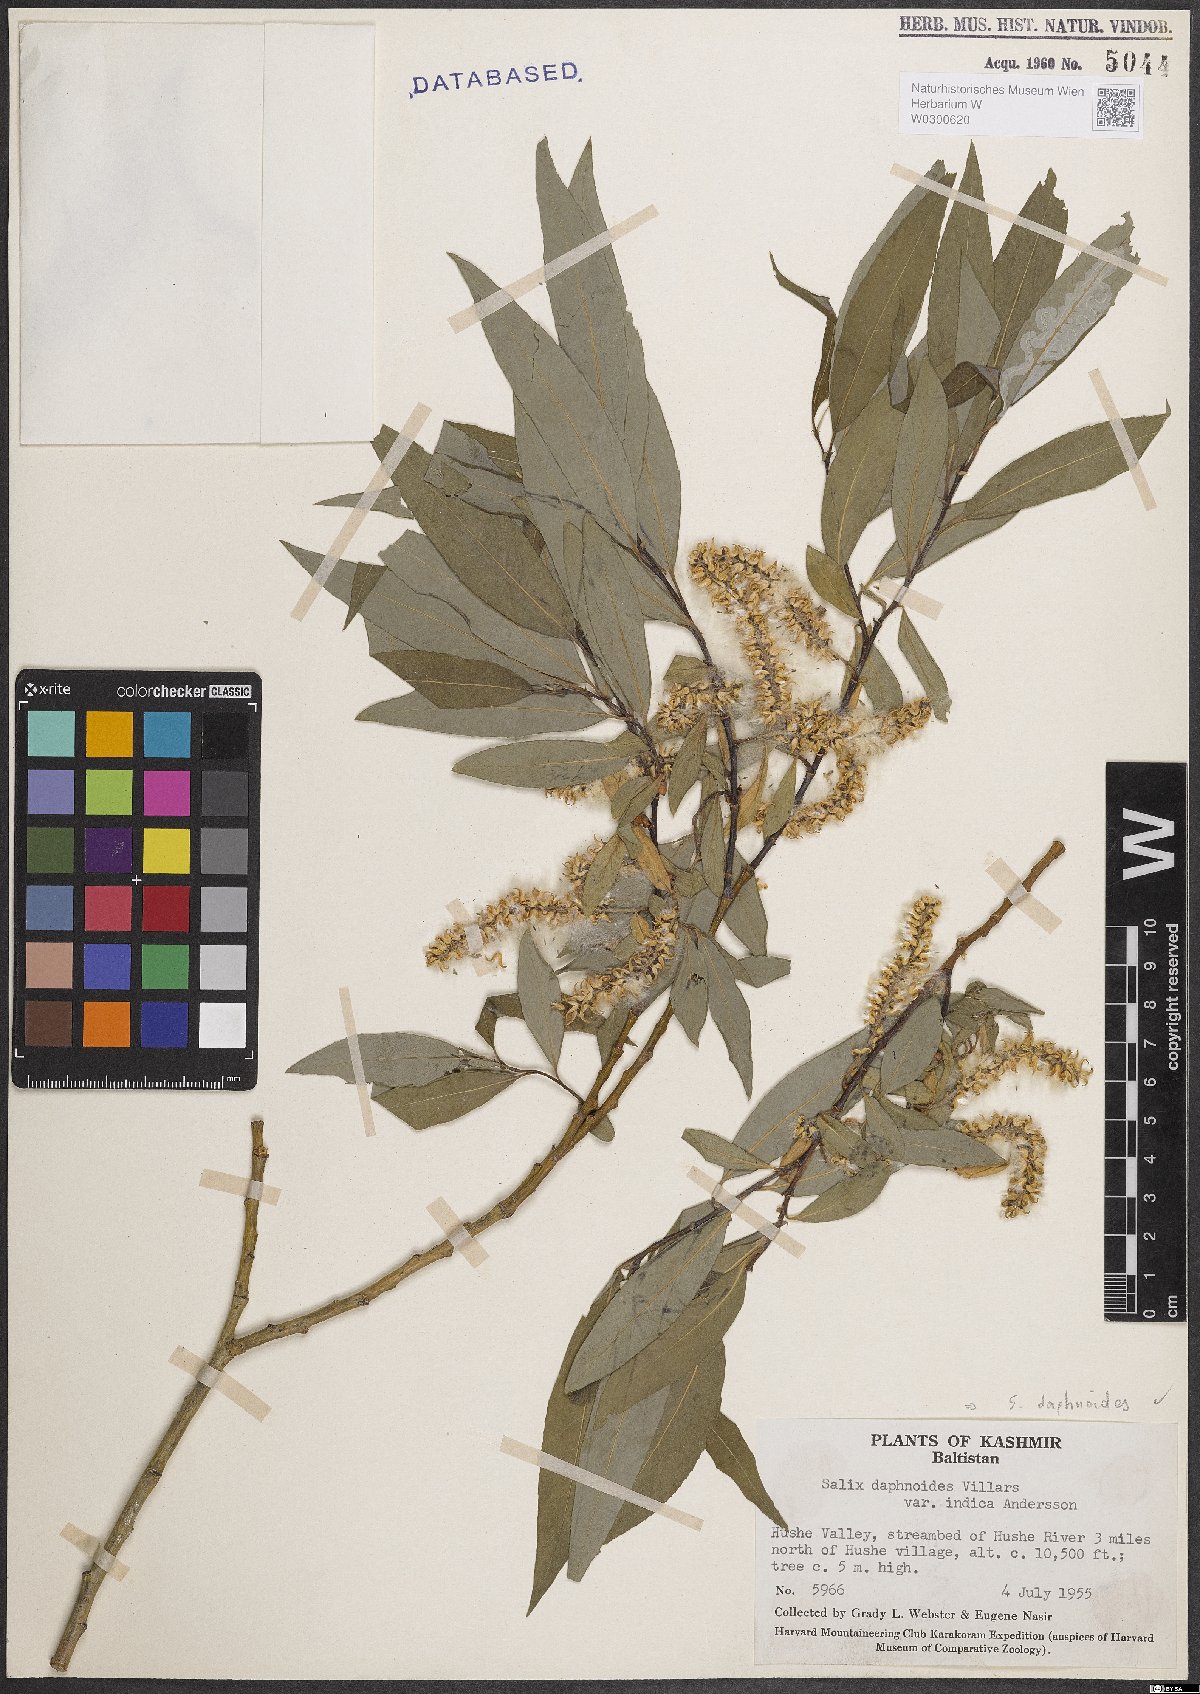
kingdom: Plantae
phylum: Tracheophyta
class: Magnoliopsida
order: Malpighiales
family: Salicaceae
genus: Salix
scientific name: Salix daphnoides
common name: European violet-willow
